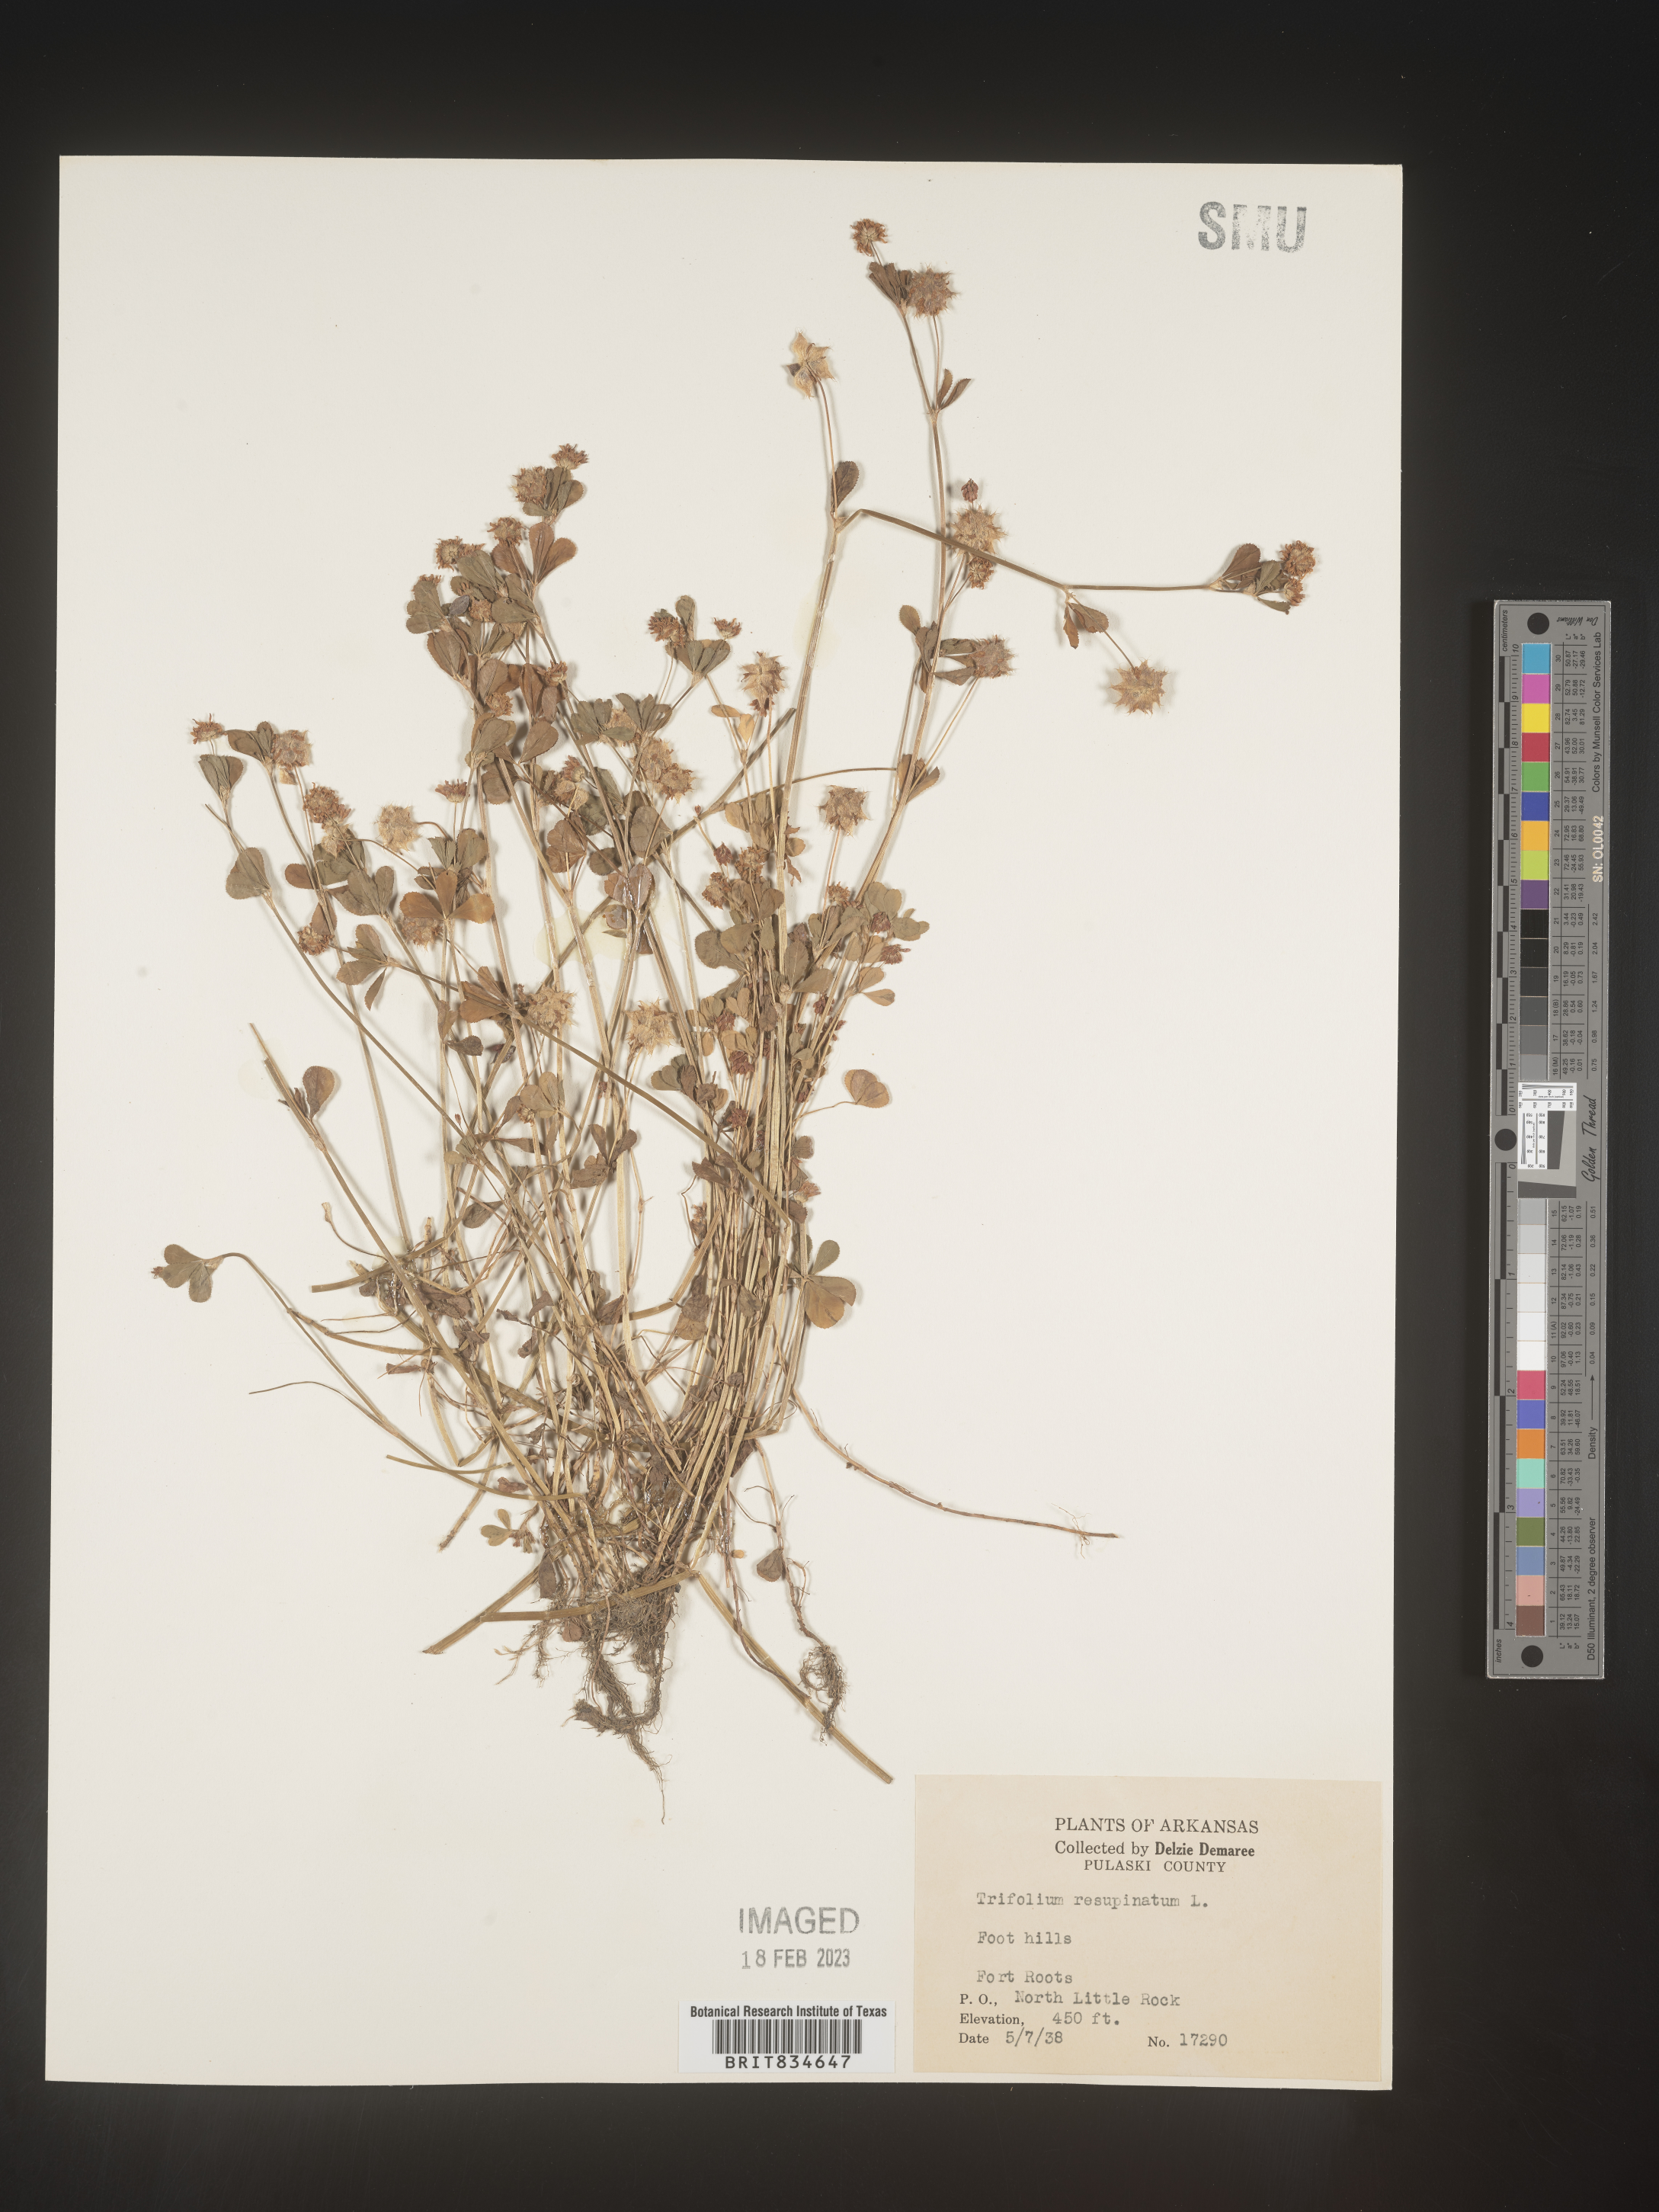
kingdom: Plantae
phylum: Tracheophyta
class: Magnoliopsida
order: Fabales
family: Fabaceae
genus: Trifolium
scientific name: Trifolium resupinatum
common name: Reversed clover
